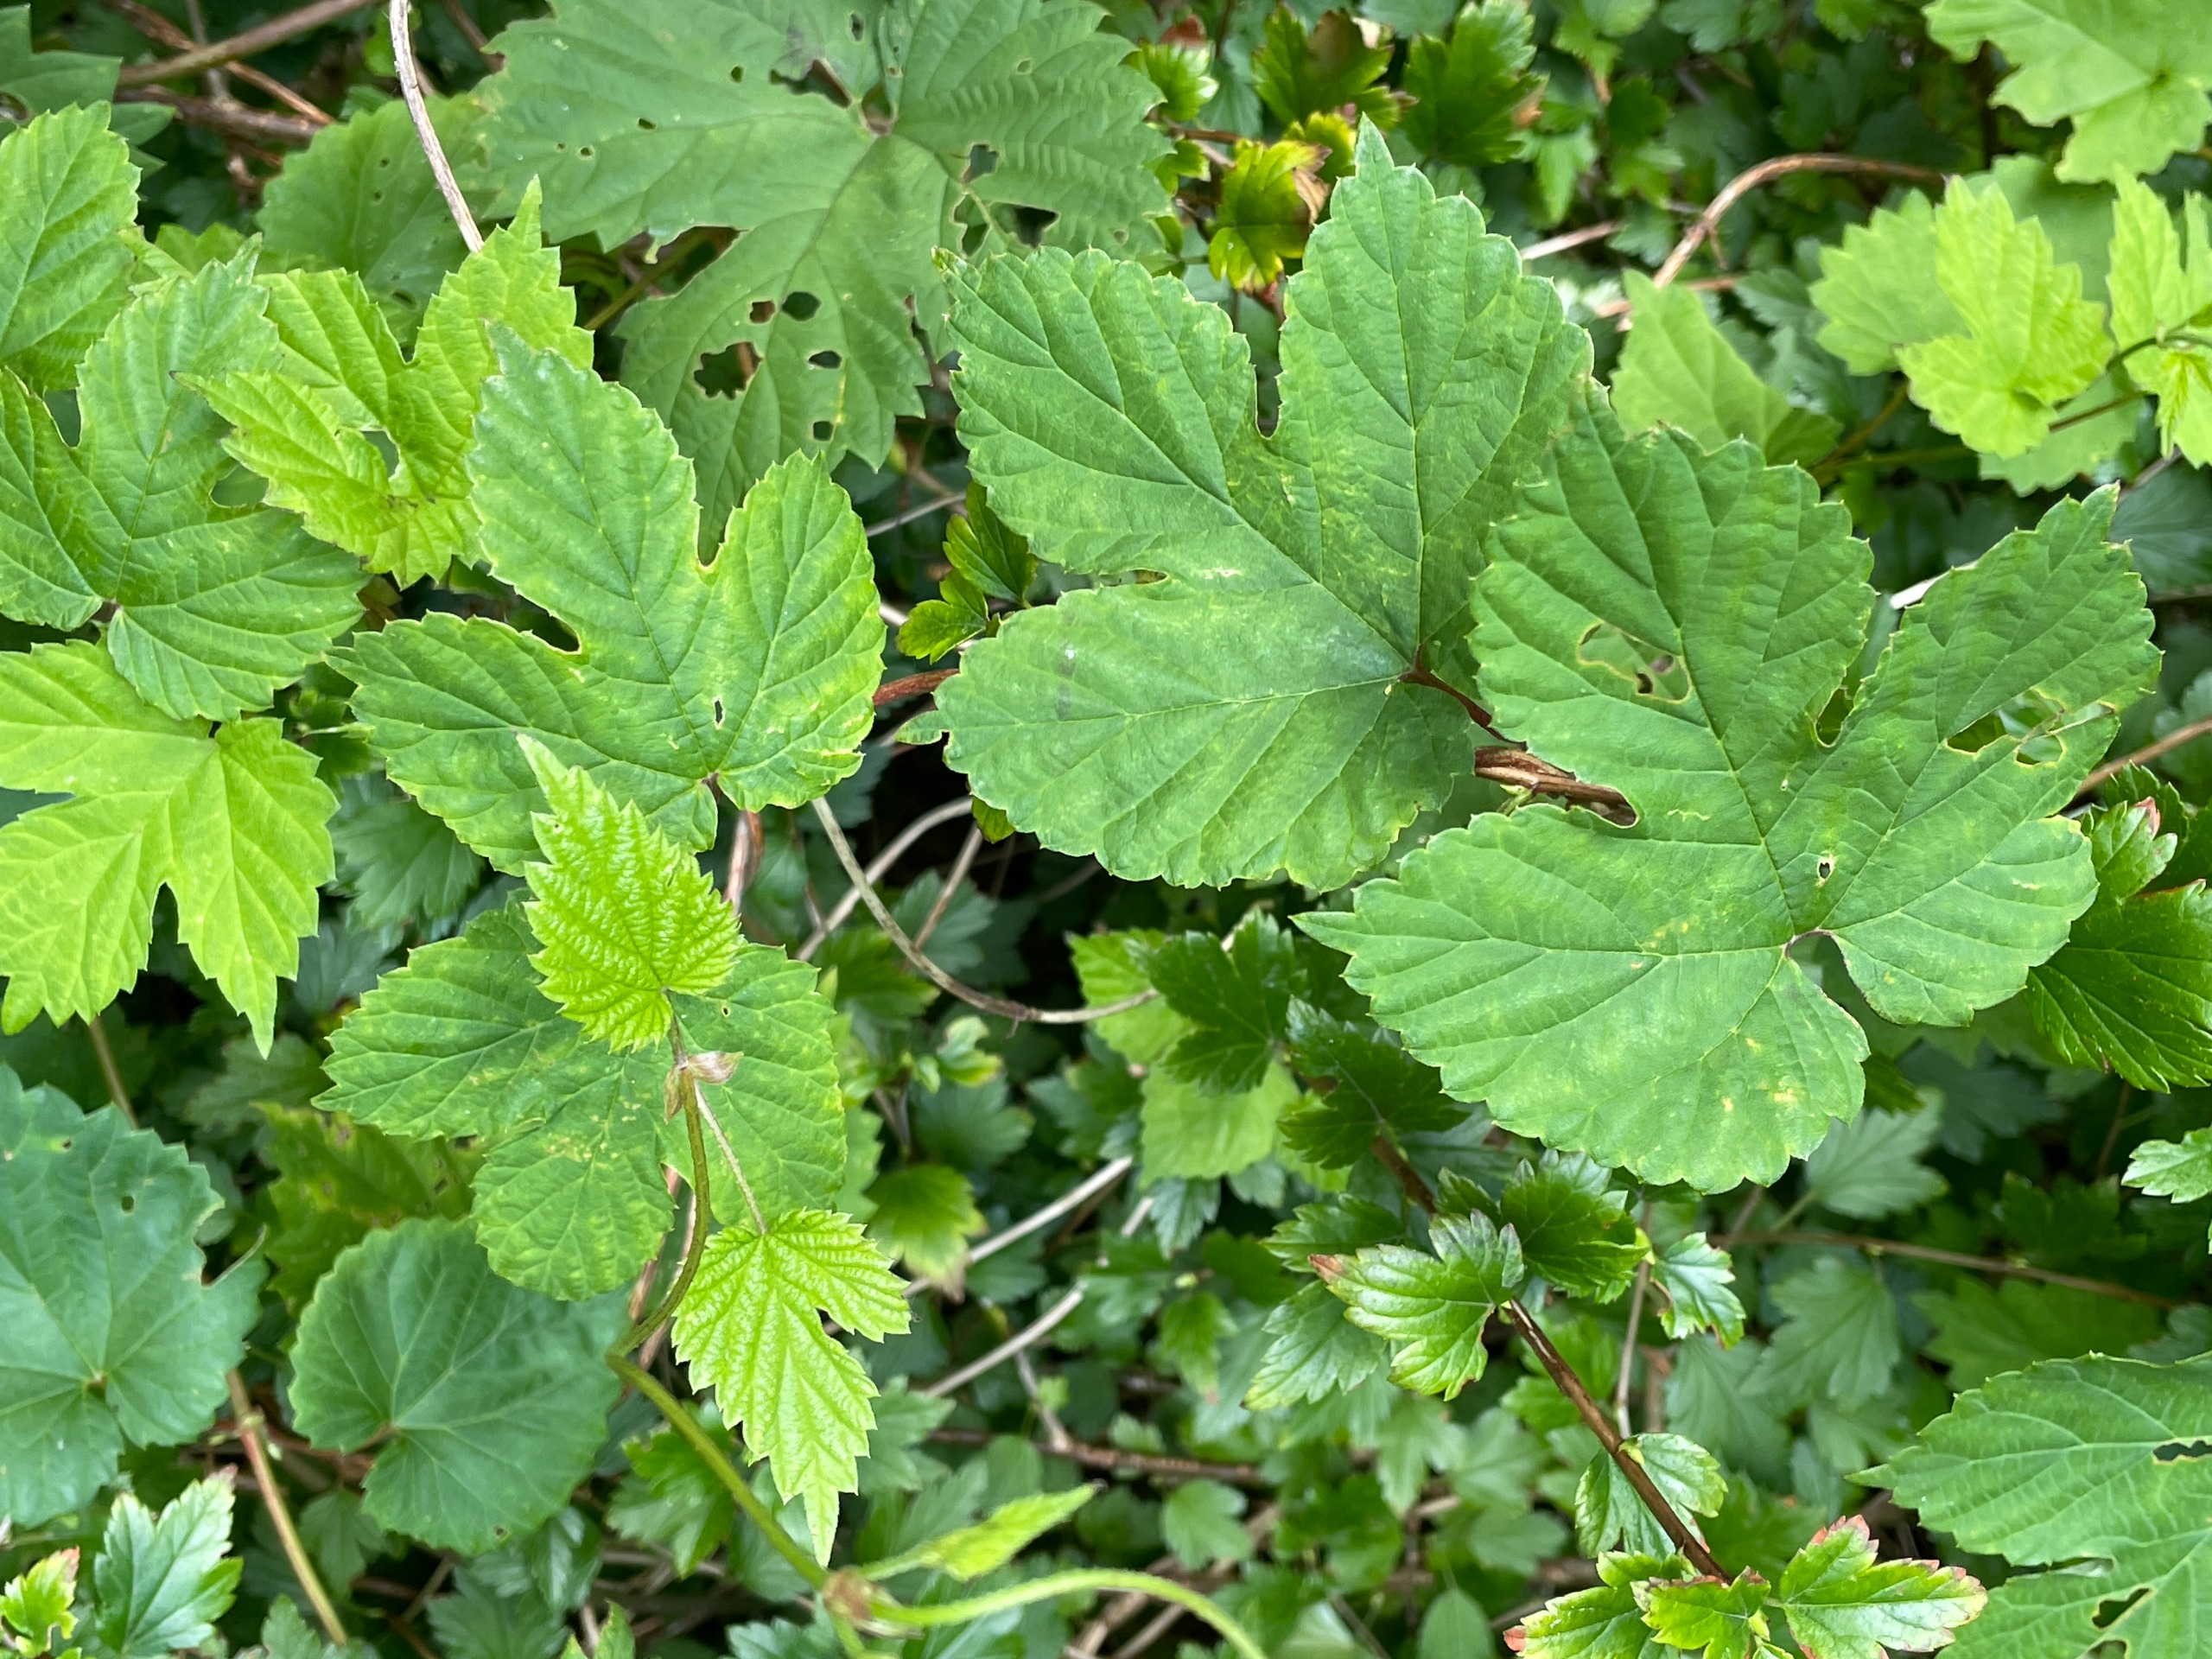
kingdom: Plantae
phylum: Tracheophyta
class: Magnoliopsida
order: Rosales
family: Cannabaceae
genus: Humulus
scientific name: Humulus lupulus
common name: Humle
